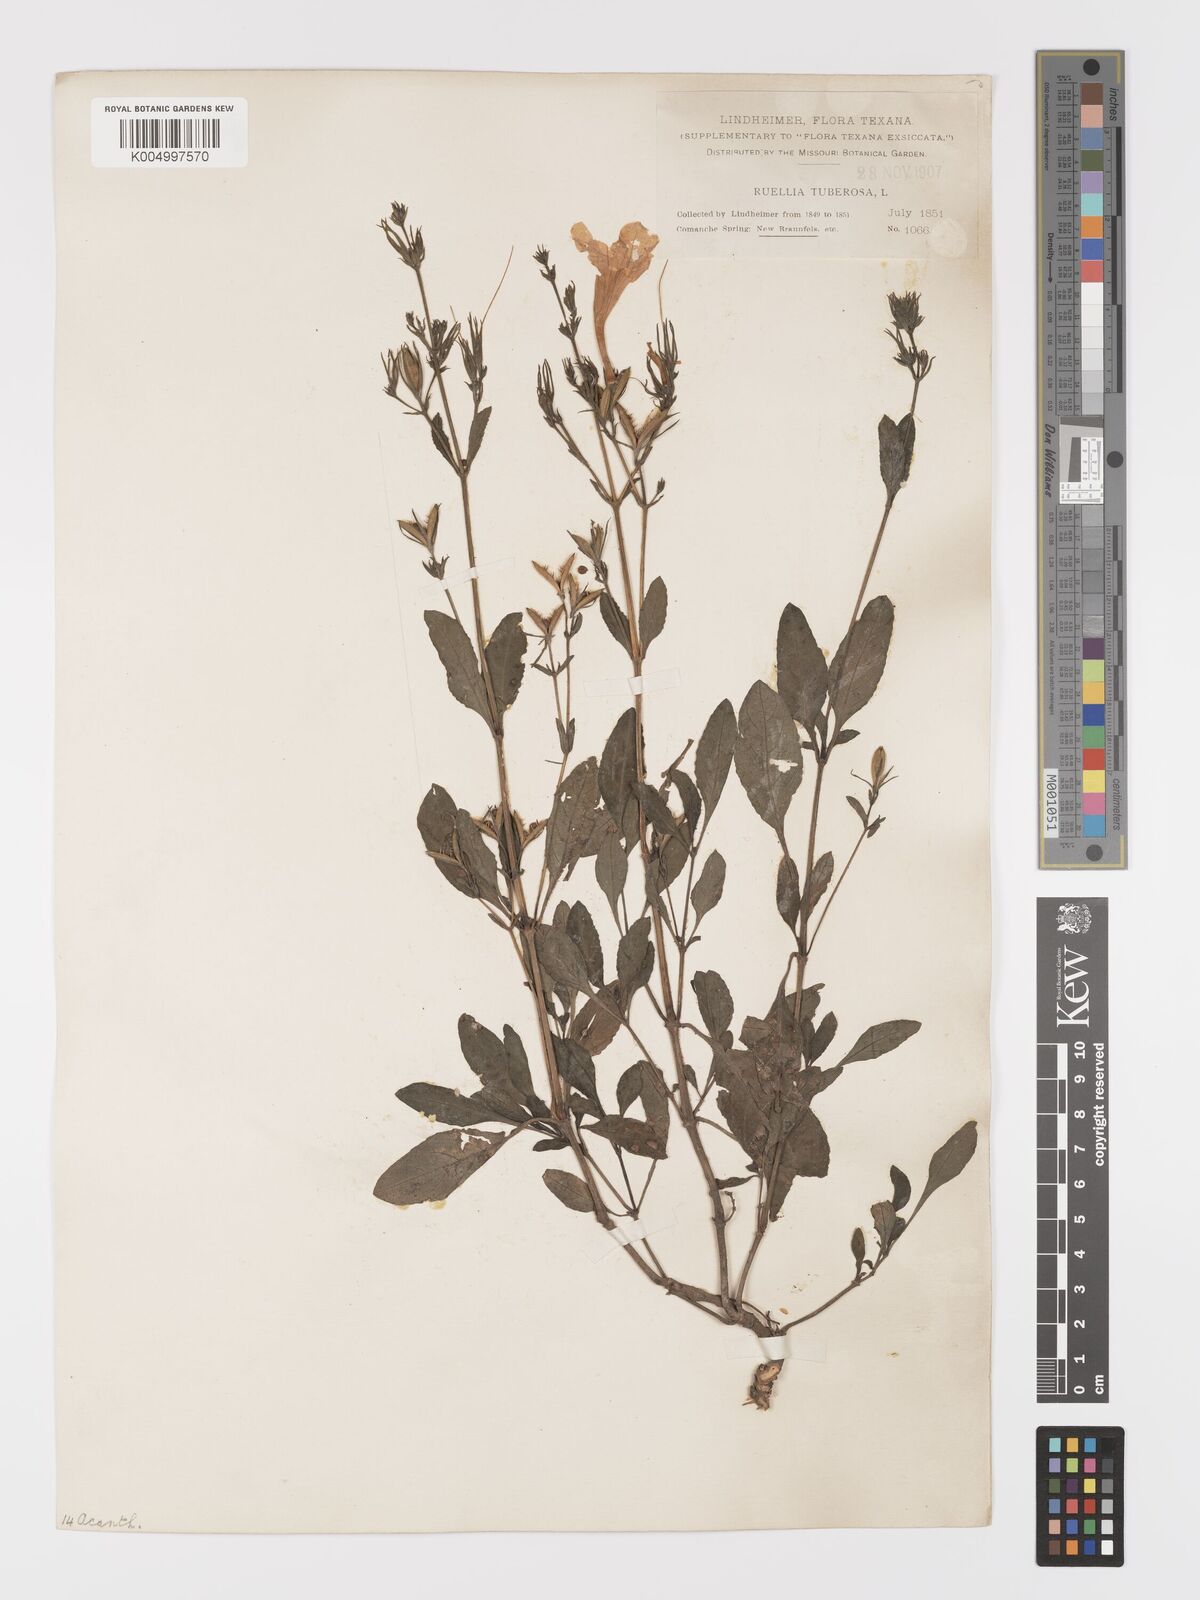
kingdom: Plantae
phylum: Tracheophyta
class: Magnoliopsida
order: Lamiales
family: Acanthaceae
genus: Ruellia
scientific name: Ruellia tuberosa
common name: Devil's bit
